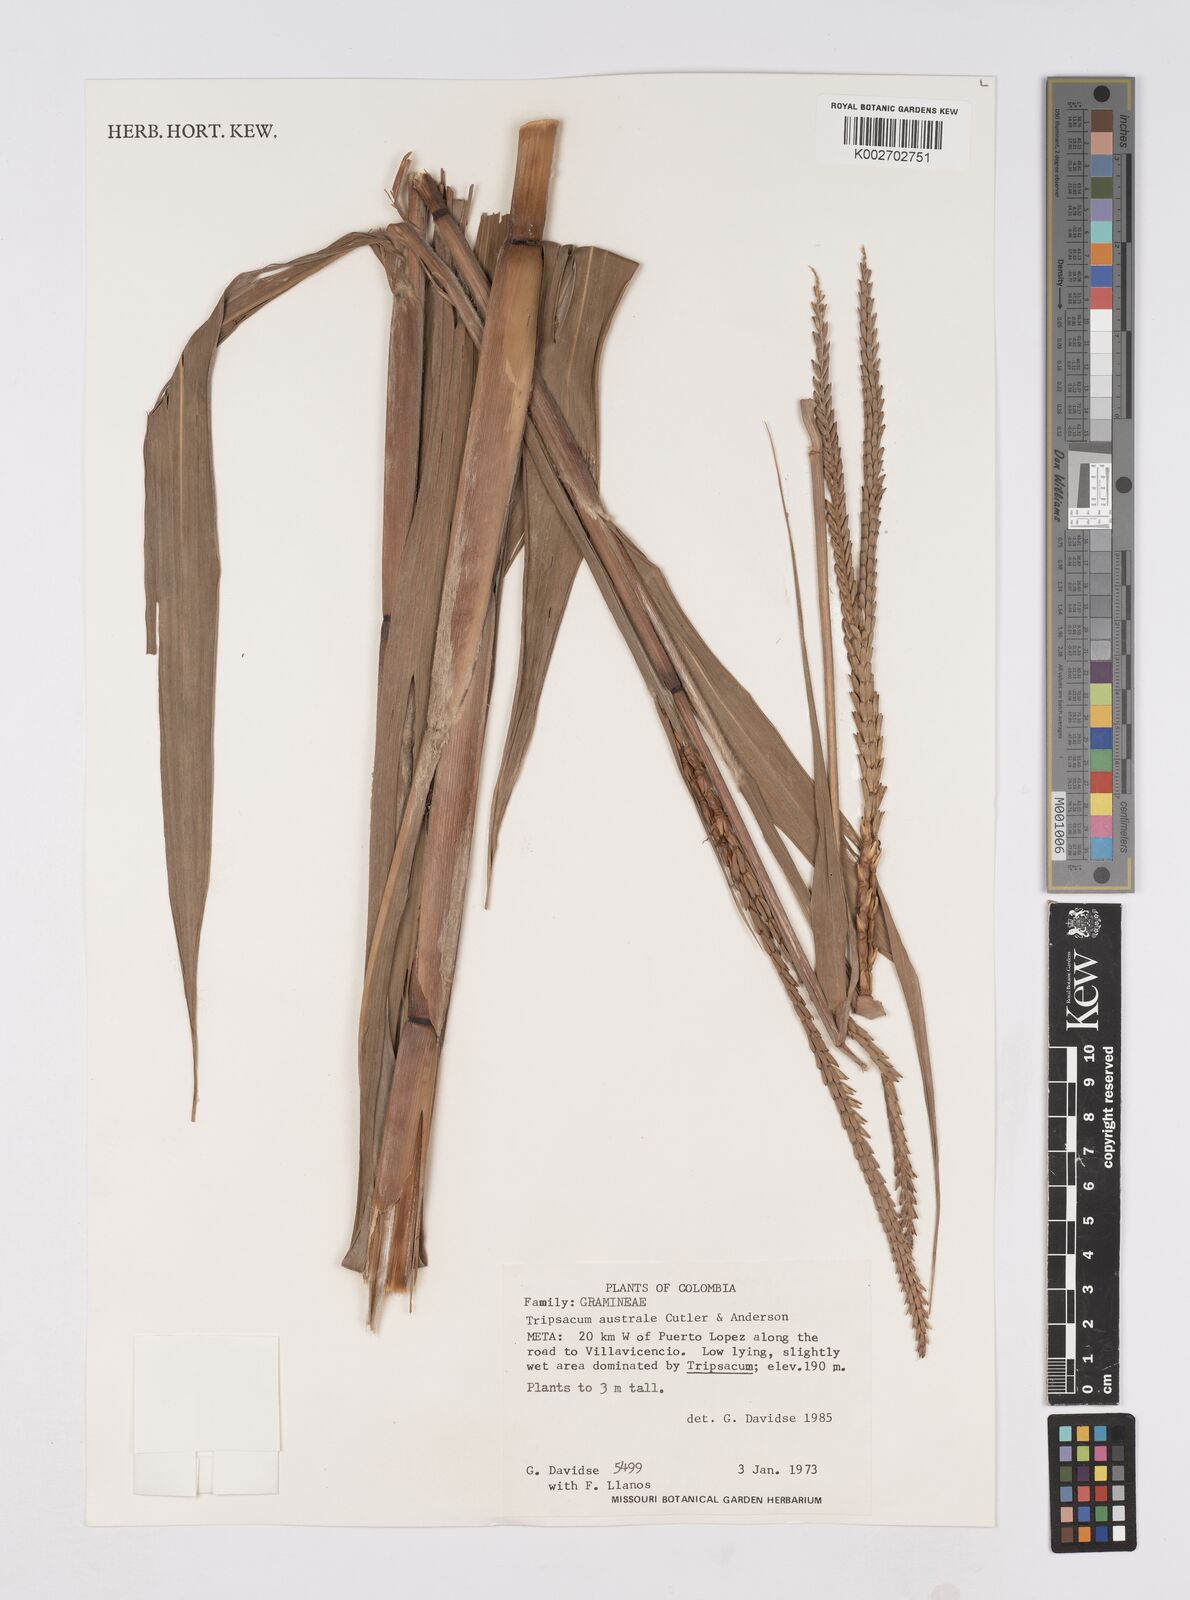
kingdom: Plantae
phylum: Tracheophyta
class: Liliopsida
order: Poales
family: Poaceae
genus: Tripsacum
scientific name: Tripsacum australe
